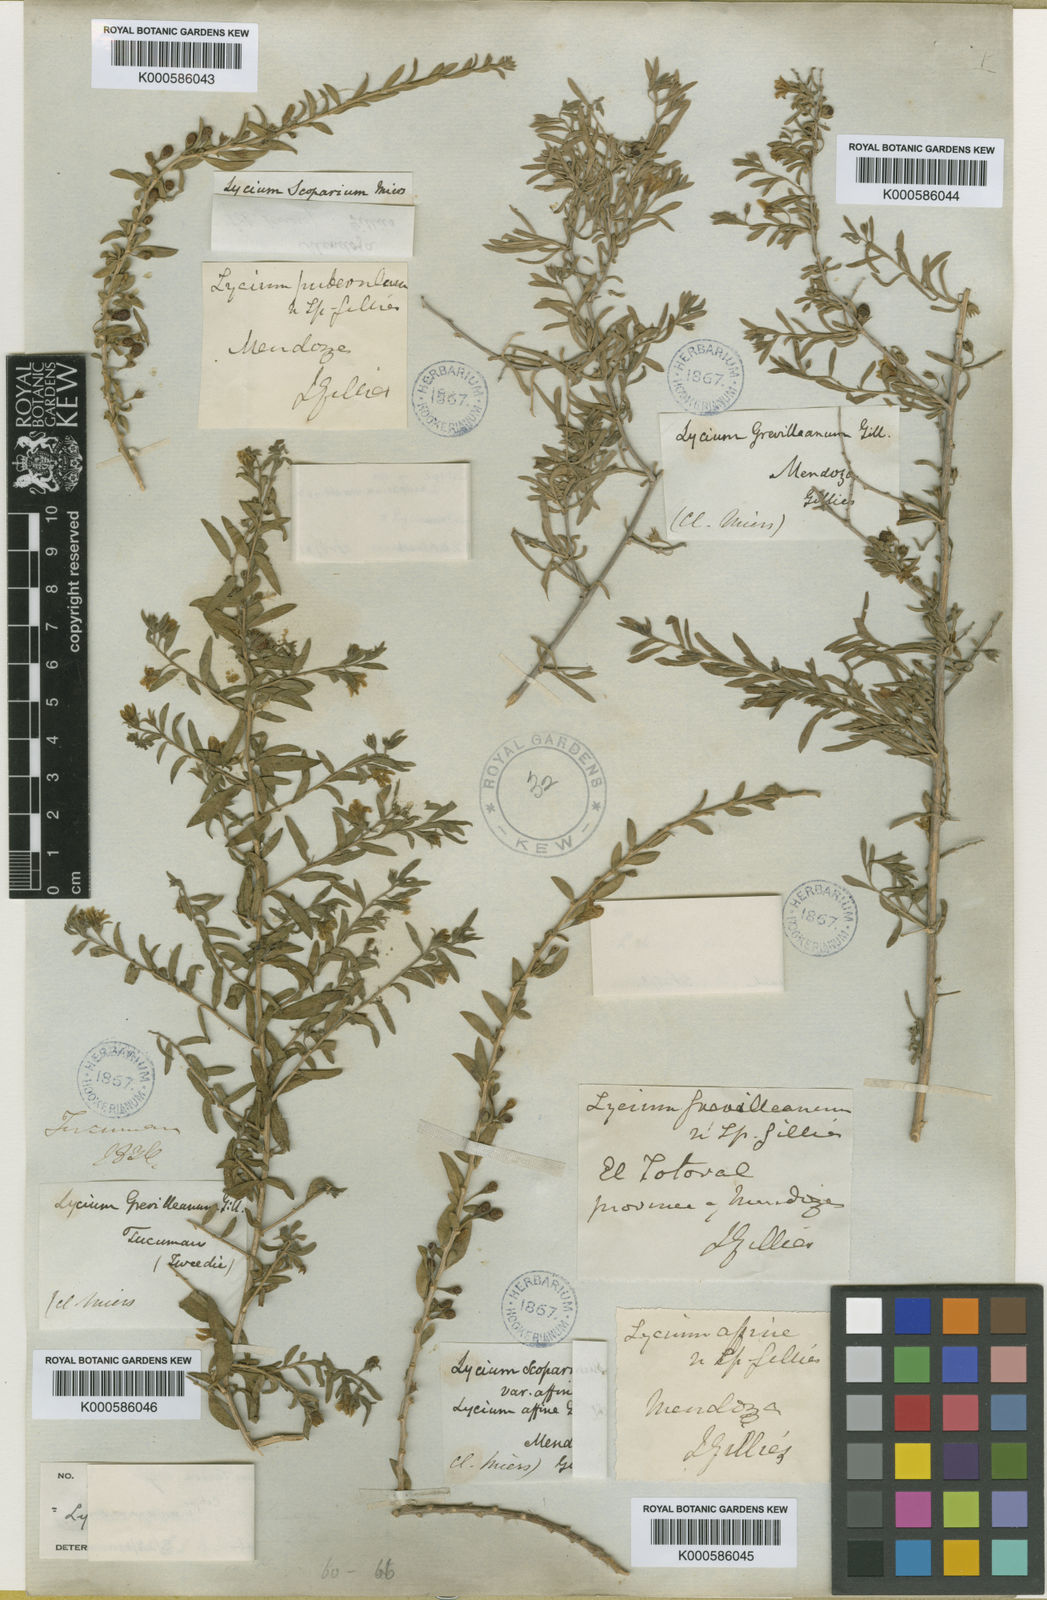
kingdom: Plantae
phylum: Tracheophyta
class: Magnoliopsida
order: Solanales
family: Solanaceae
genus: Lycium
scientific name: Lycium chilense
